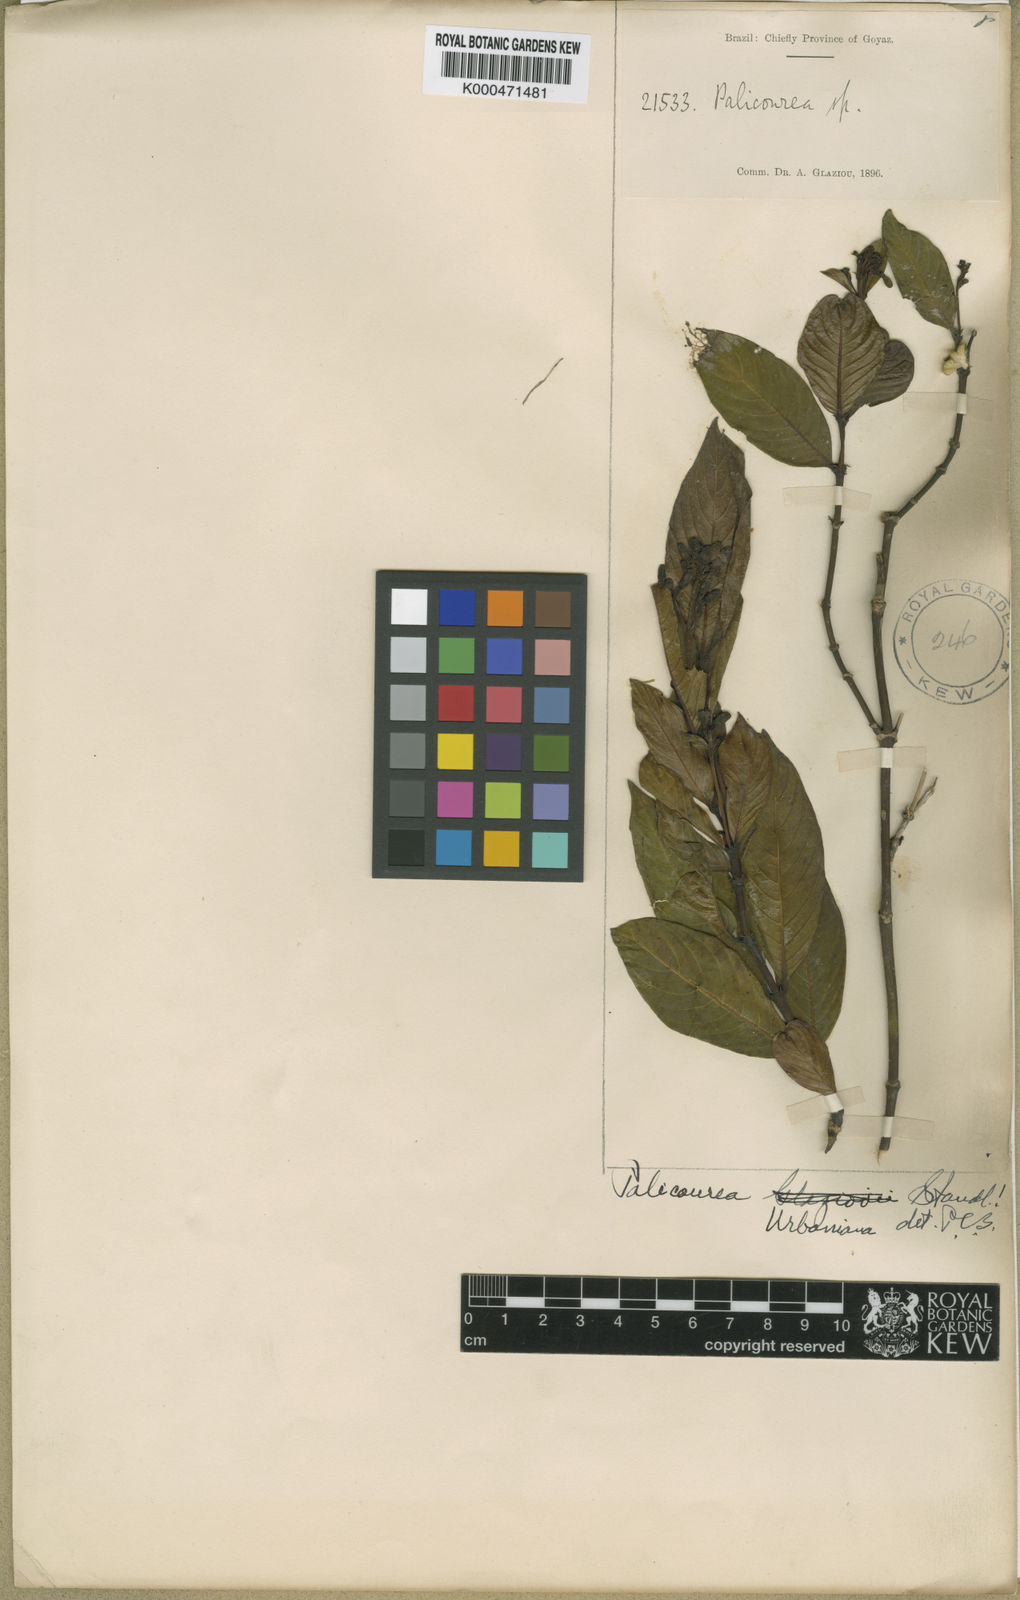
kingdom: Plantae
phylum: Tracheophyta
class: Magnoliopsida
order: Gentianales
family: Rubiaceae
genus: Palicourea
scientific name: Palicourea urbaniana
